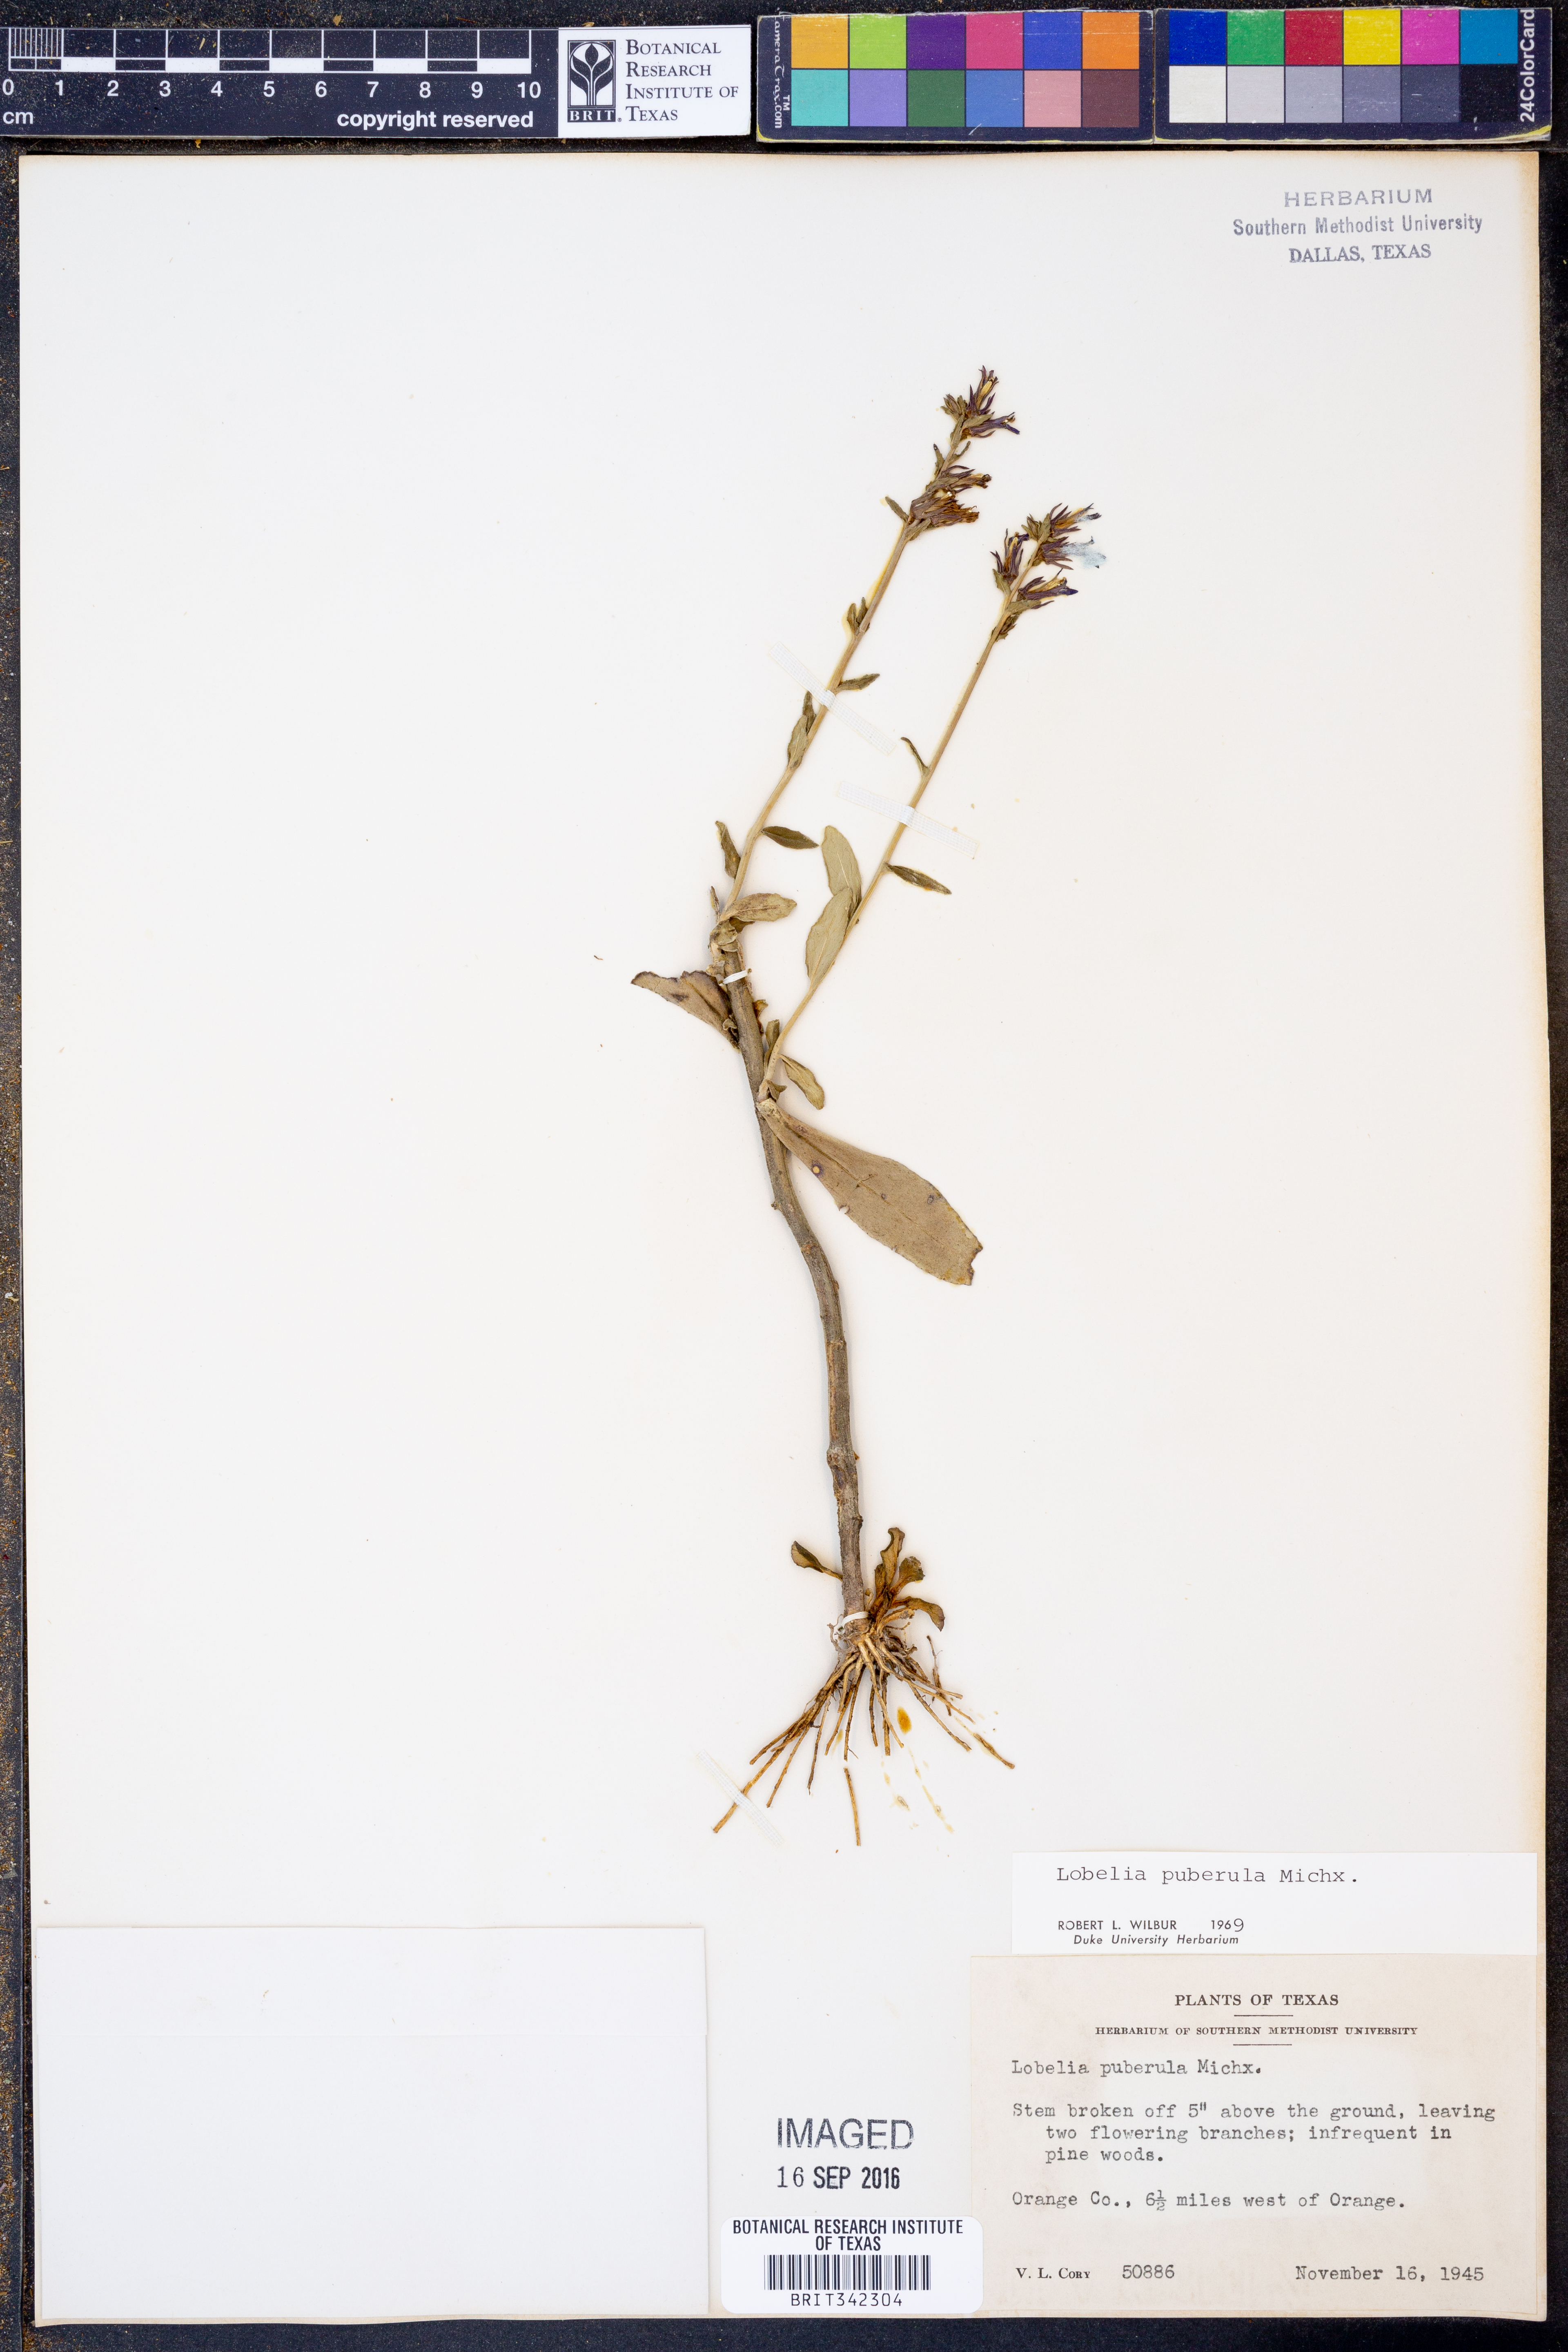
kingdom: Plantae
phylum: Tracheophyta
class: Magnoliopsida
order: Asterales
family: Campanulaceae
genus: Lobelia
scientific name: Lobelia puberula
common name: Purple dewdrop
